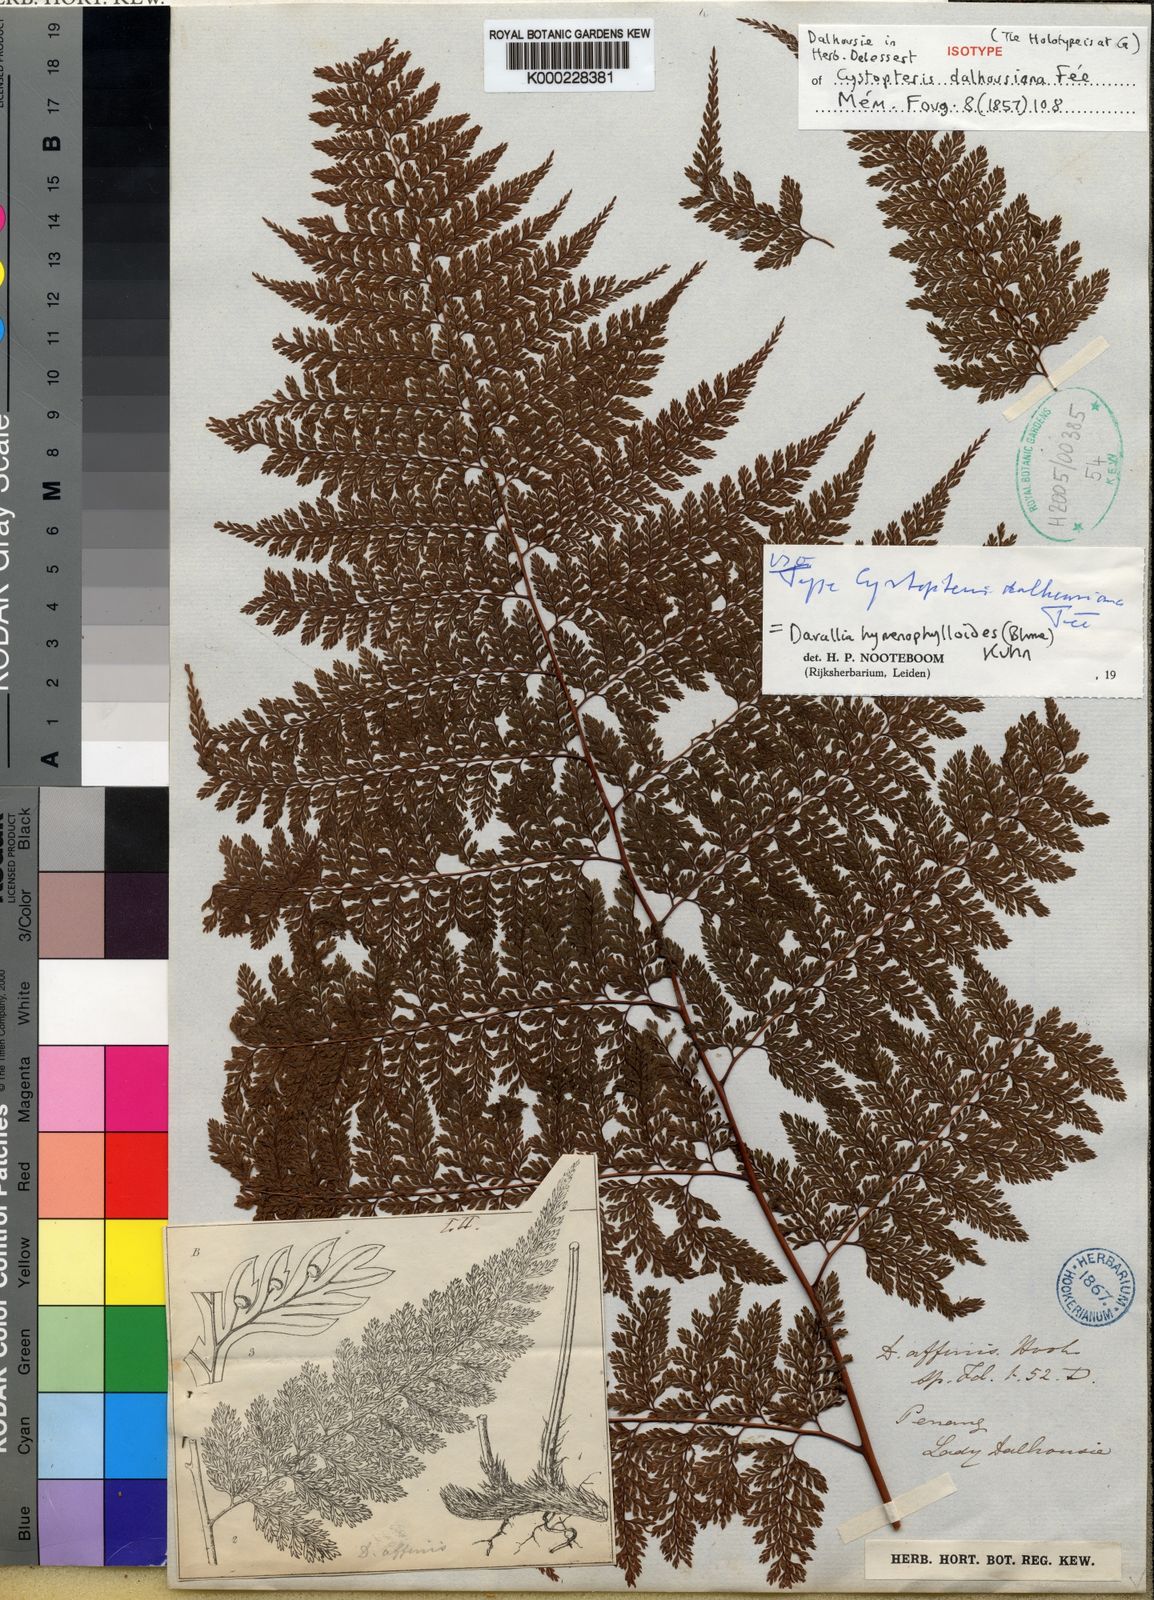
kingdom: Plantae
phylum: Tracheophyta
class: Polypodiopsida
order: Polypodiales
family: Davalliaceae
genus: Davallodes
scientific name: Davallodes hymenophylloides
